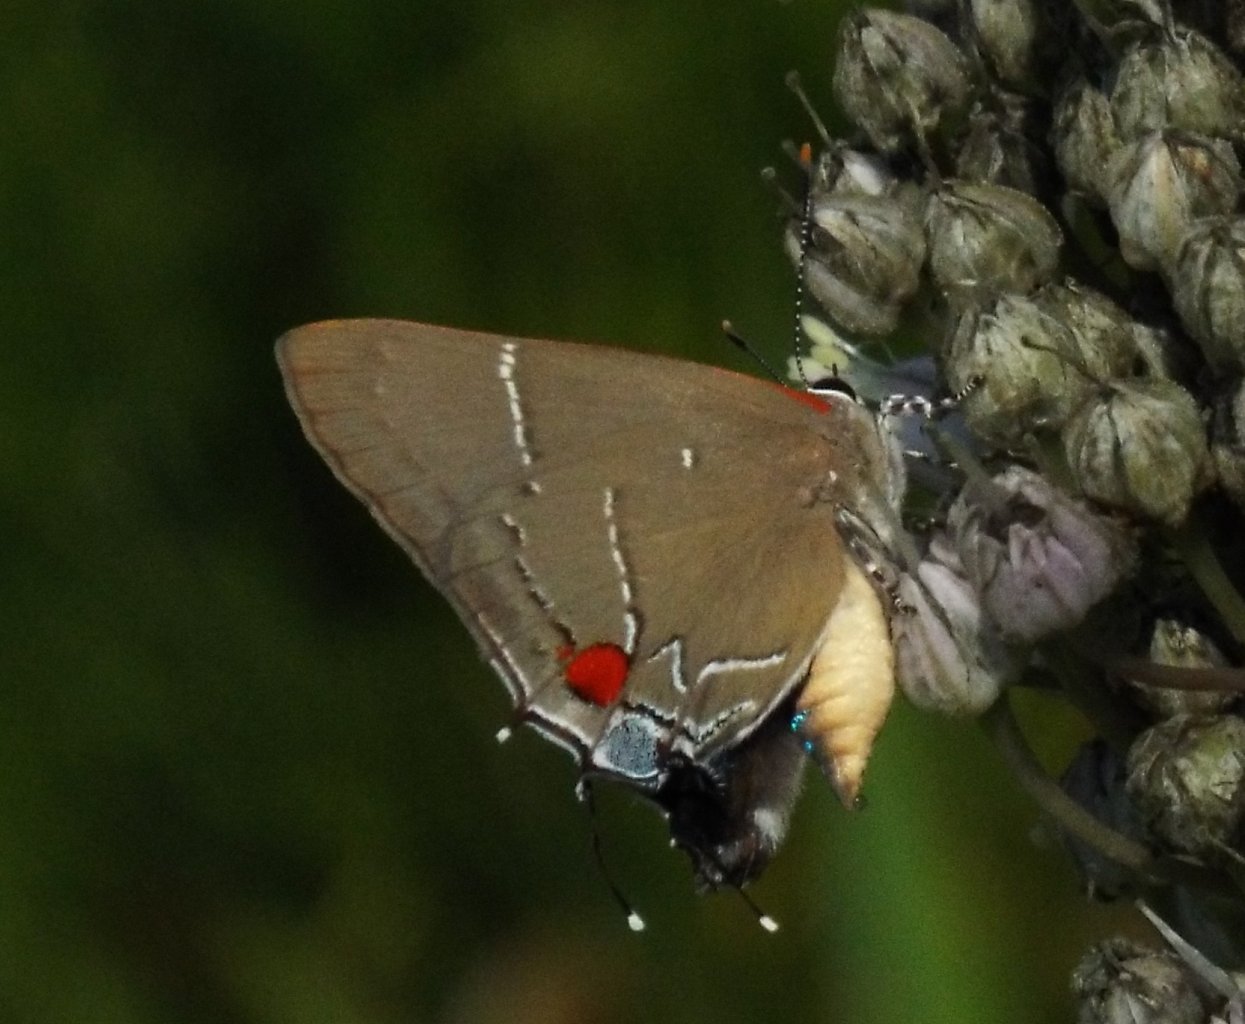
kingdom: Animalia
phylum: Arthropoda
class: Insecta
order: Lepidoptera
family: Lycaenidae
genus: Parrhasius
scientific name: Parrhasius m-album
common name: White-m Hairstreak
